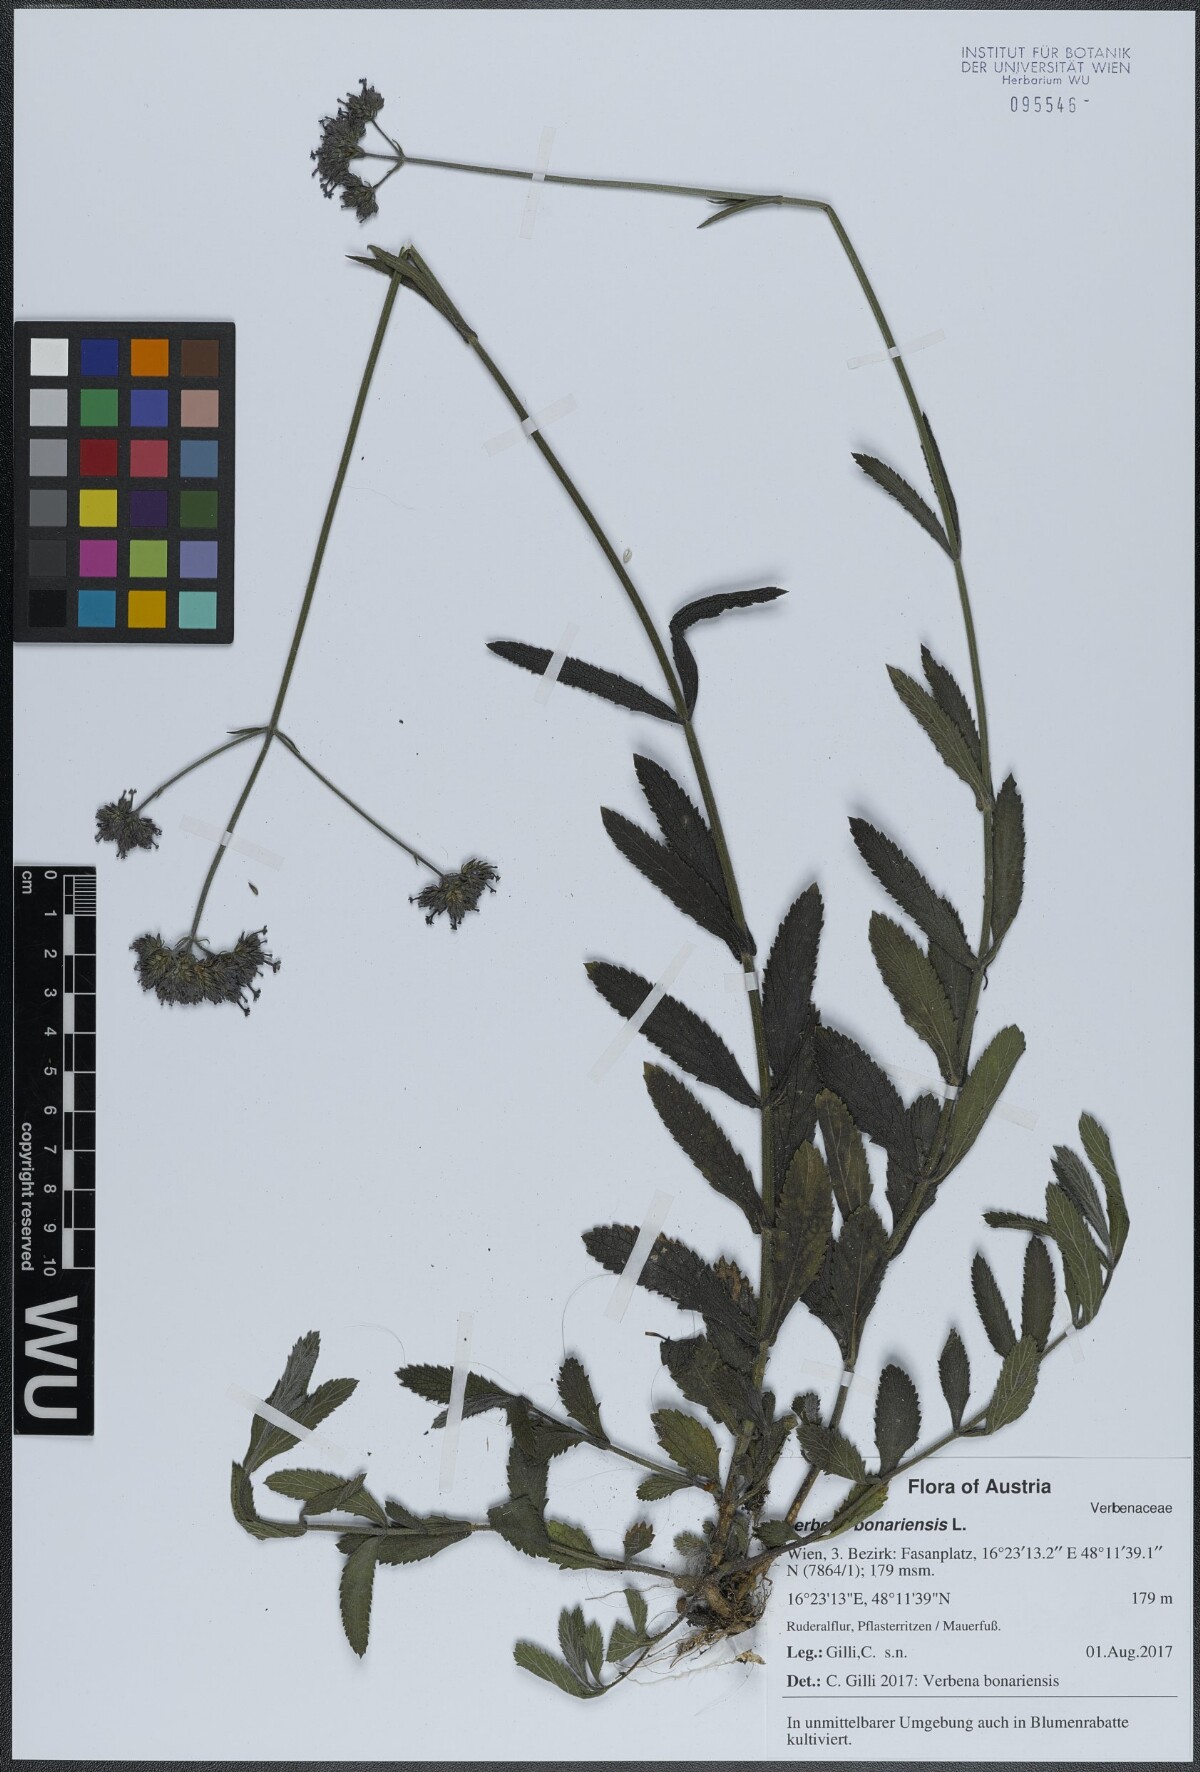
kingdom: Plantae
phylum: Tracheophyta
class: Magnoliopsida
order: Lamiales
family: Verbenaceae
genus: Verbena
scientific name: Verbena bonariensis
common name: Purpletop vervain
